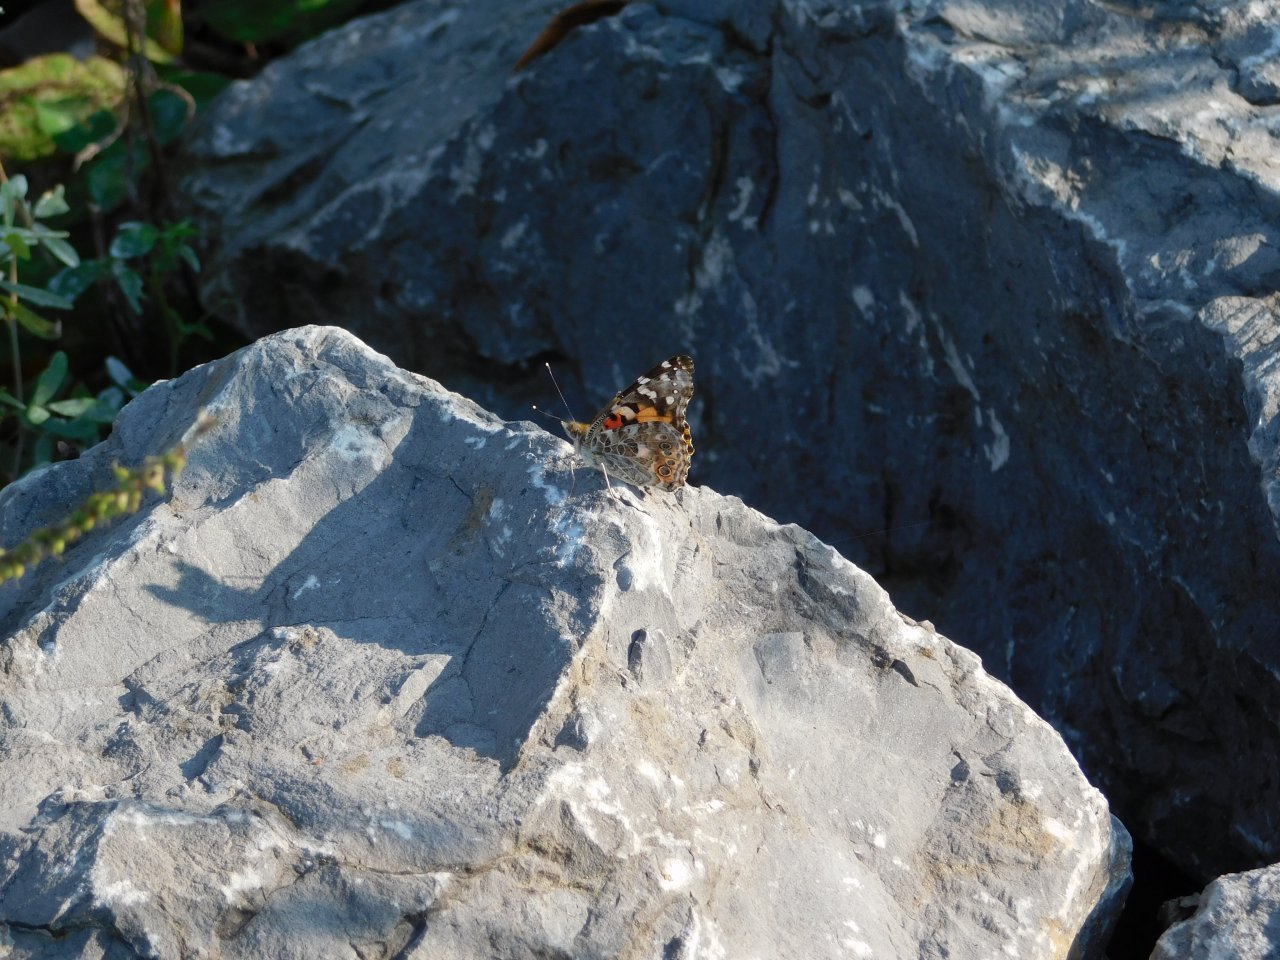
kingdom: Animalia
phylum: Arthropoda
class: Insecta
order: Lepidoptera
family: Nymphalidae
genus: Vanessa
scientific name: Vanessa cardui
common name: Painted Lady
